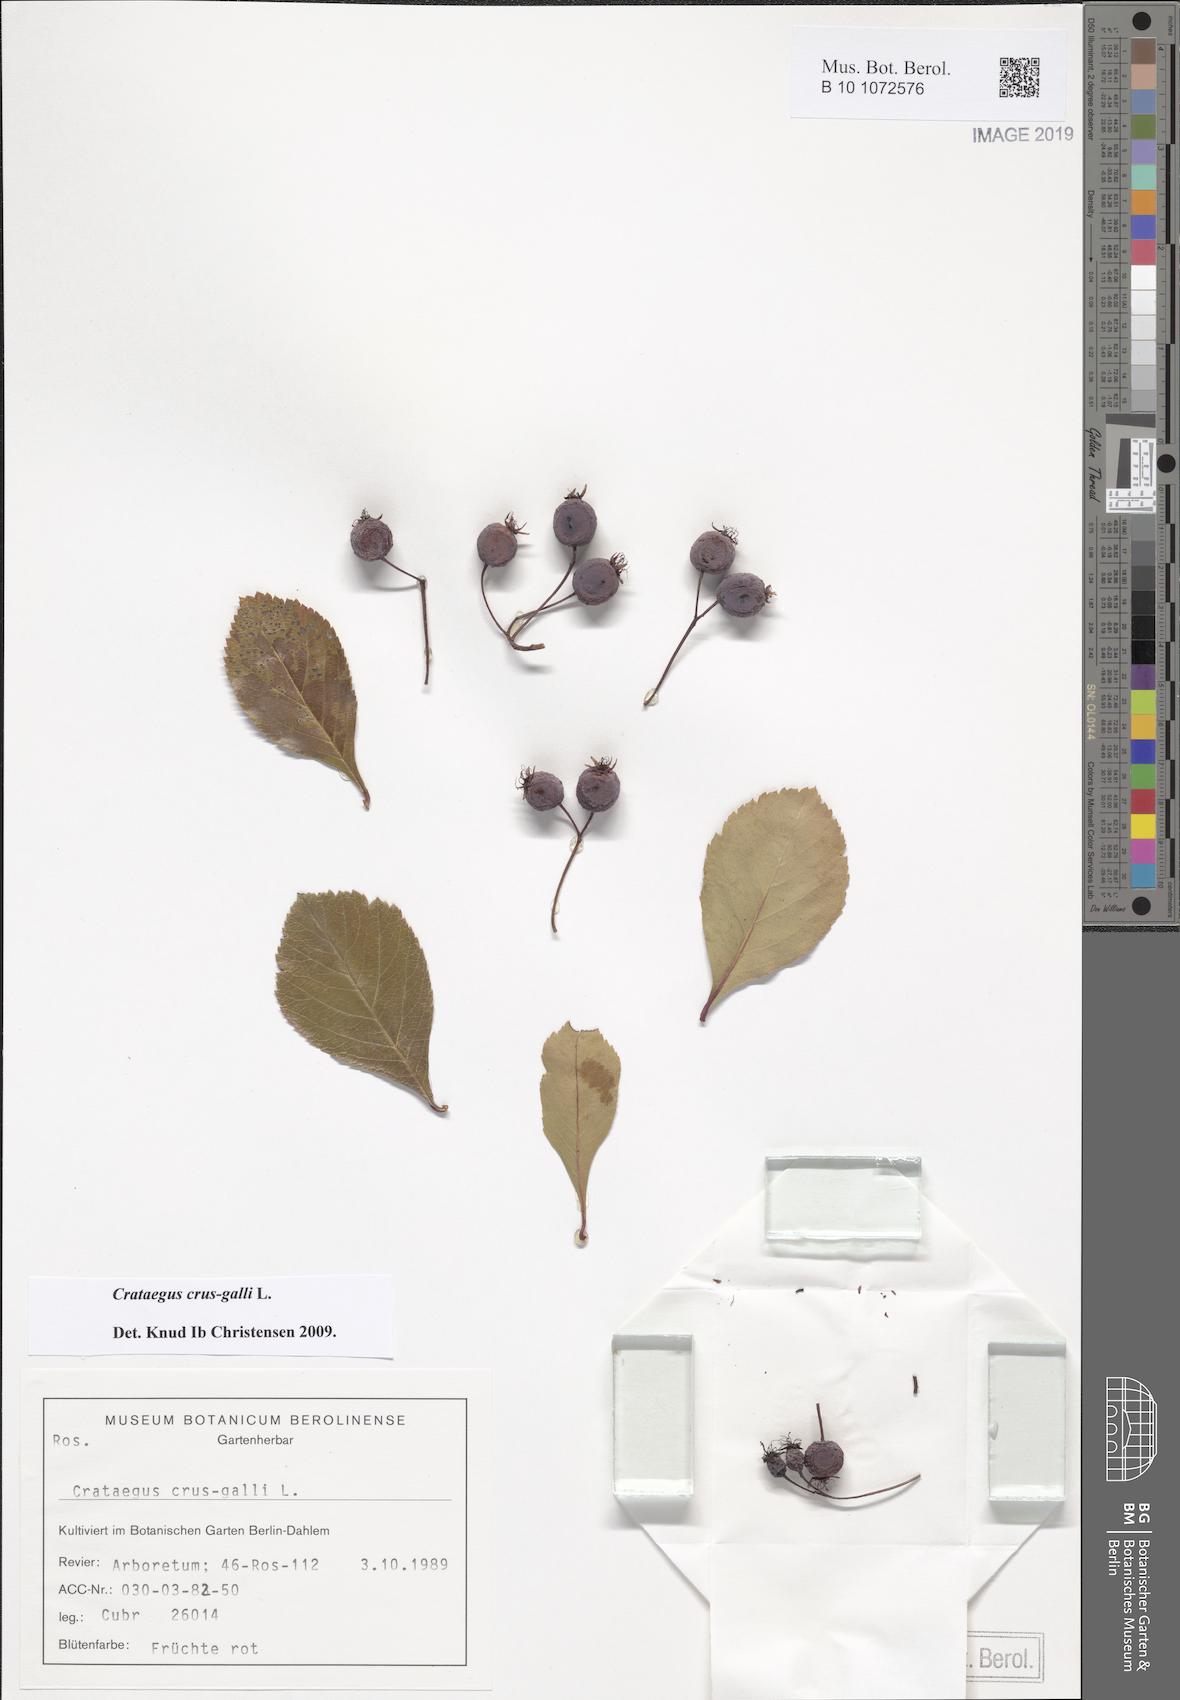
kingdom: Plantae
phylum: Tracheophyta
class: Magnoliopsida
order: Rosales
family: Rosaceae
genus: Crataegus
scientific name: Crataegus crus-galli
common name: Cockspurthorn
